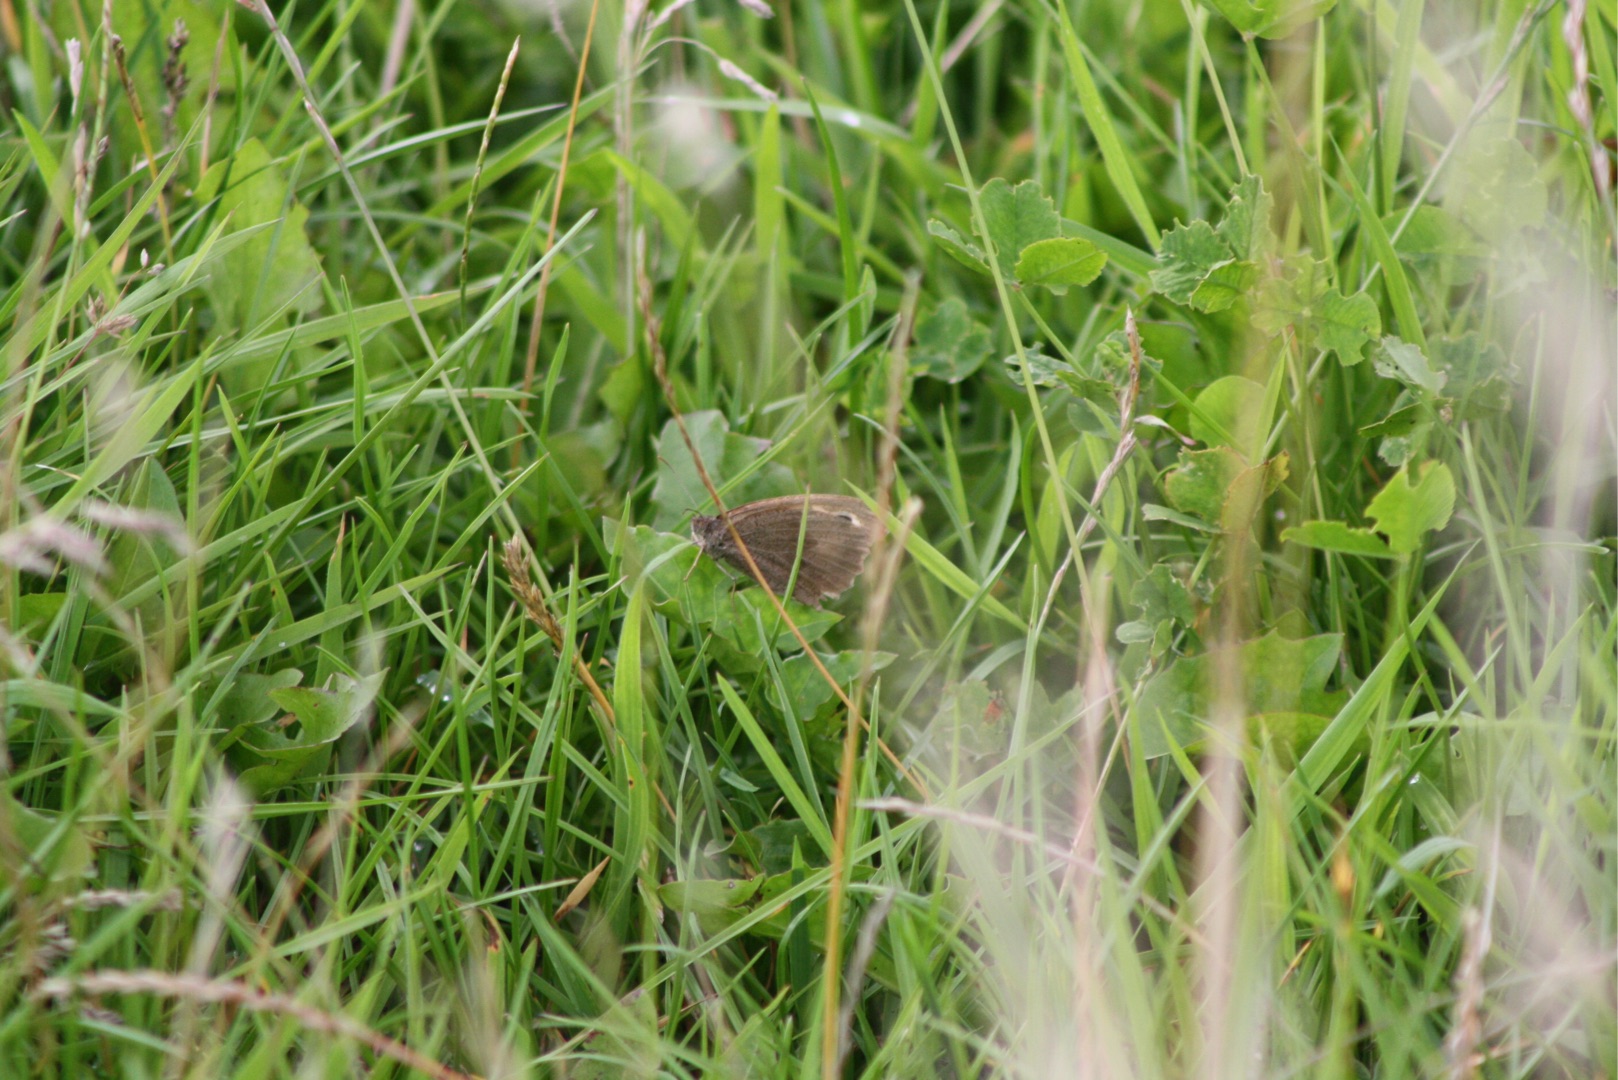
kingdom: Animalia
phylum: Arthropoda
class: Insecta
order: Lepidoptera
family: Nymphalidae
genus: Maniola
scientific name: Maniola jurtina
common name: Græsrandøje
